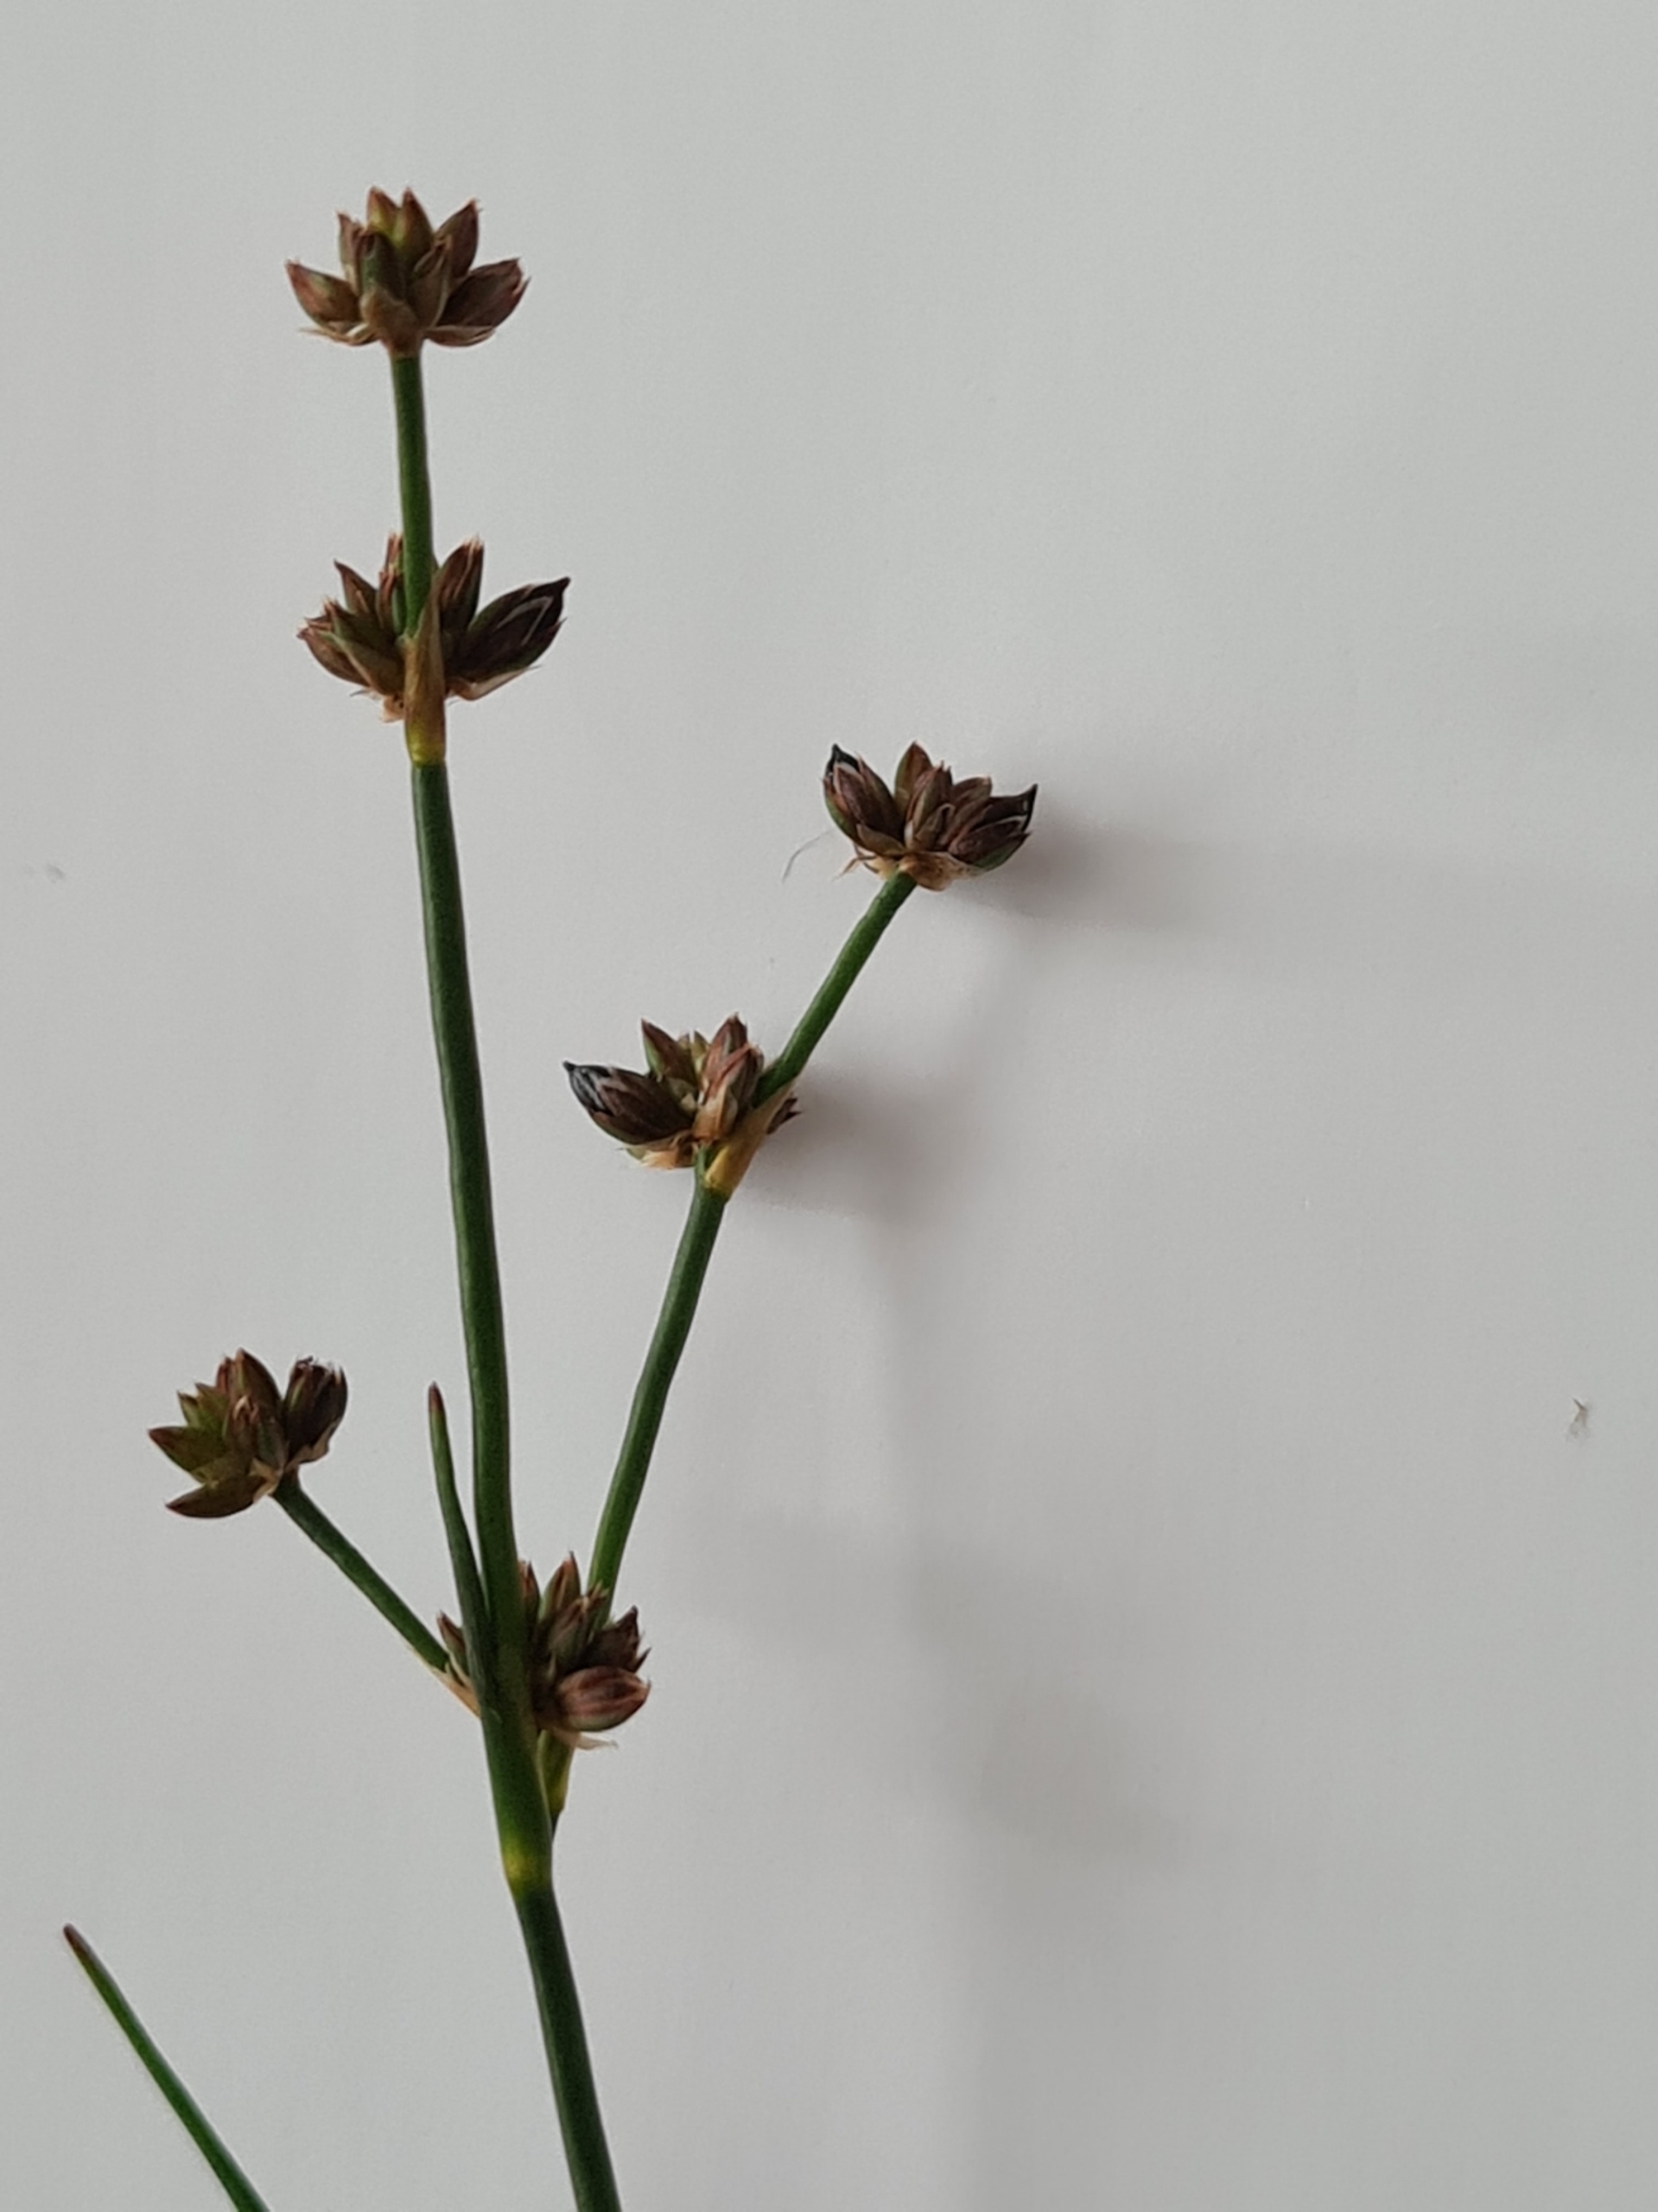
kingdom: Plantae
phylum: Tracheophyta
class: Liliopsida
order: Poales
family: Juncaceae
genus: Juncus
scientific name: Juncus articulatus
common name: Glanskapslet siv
